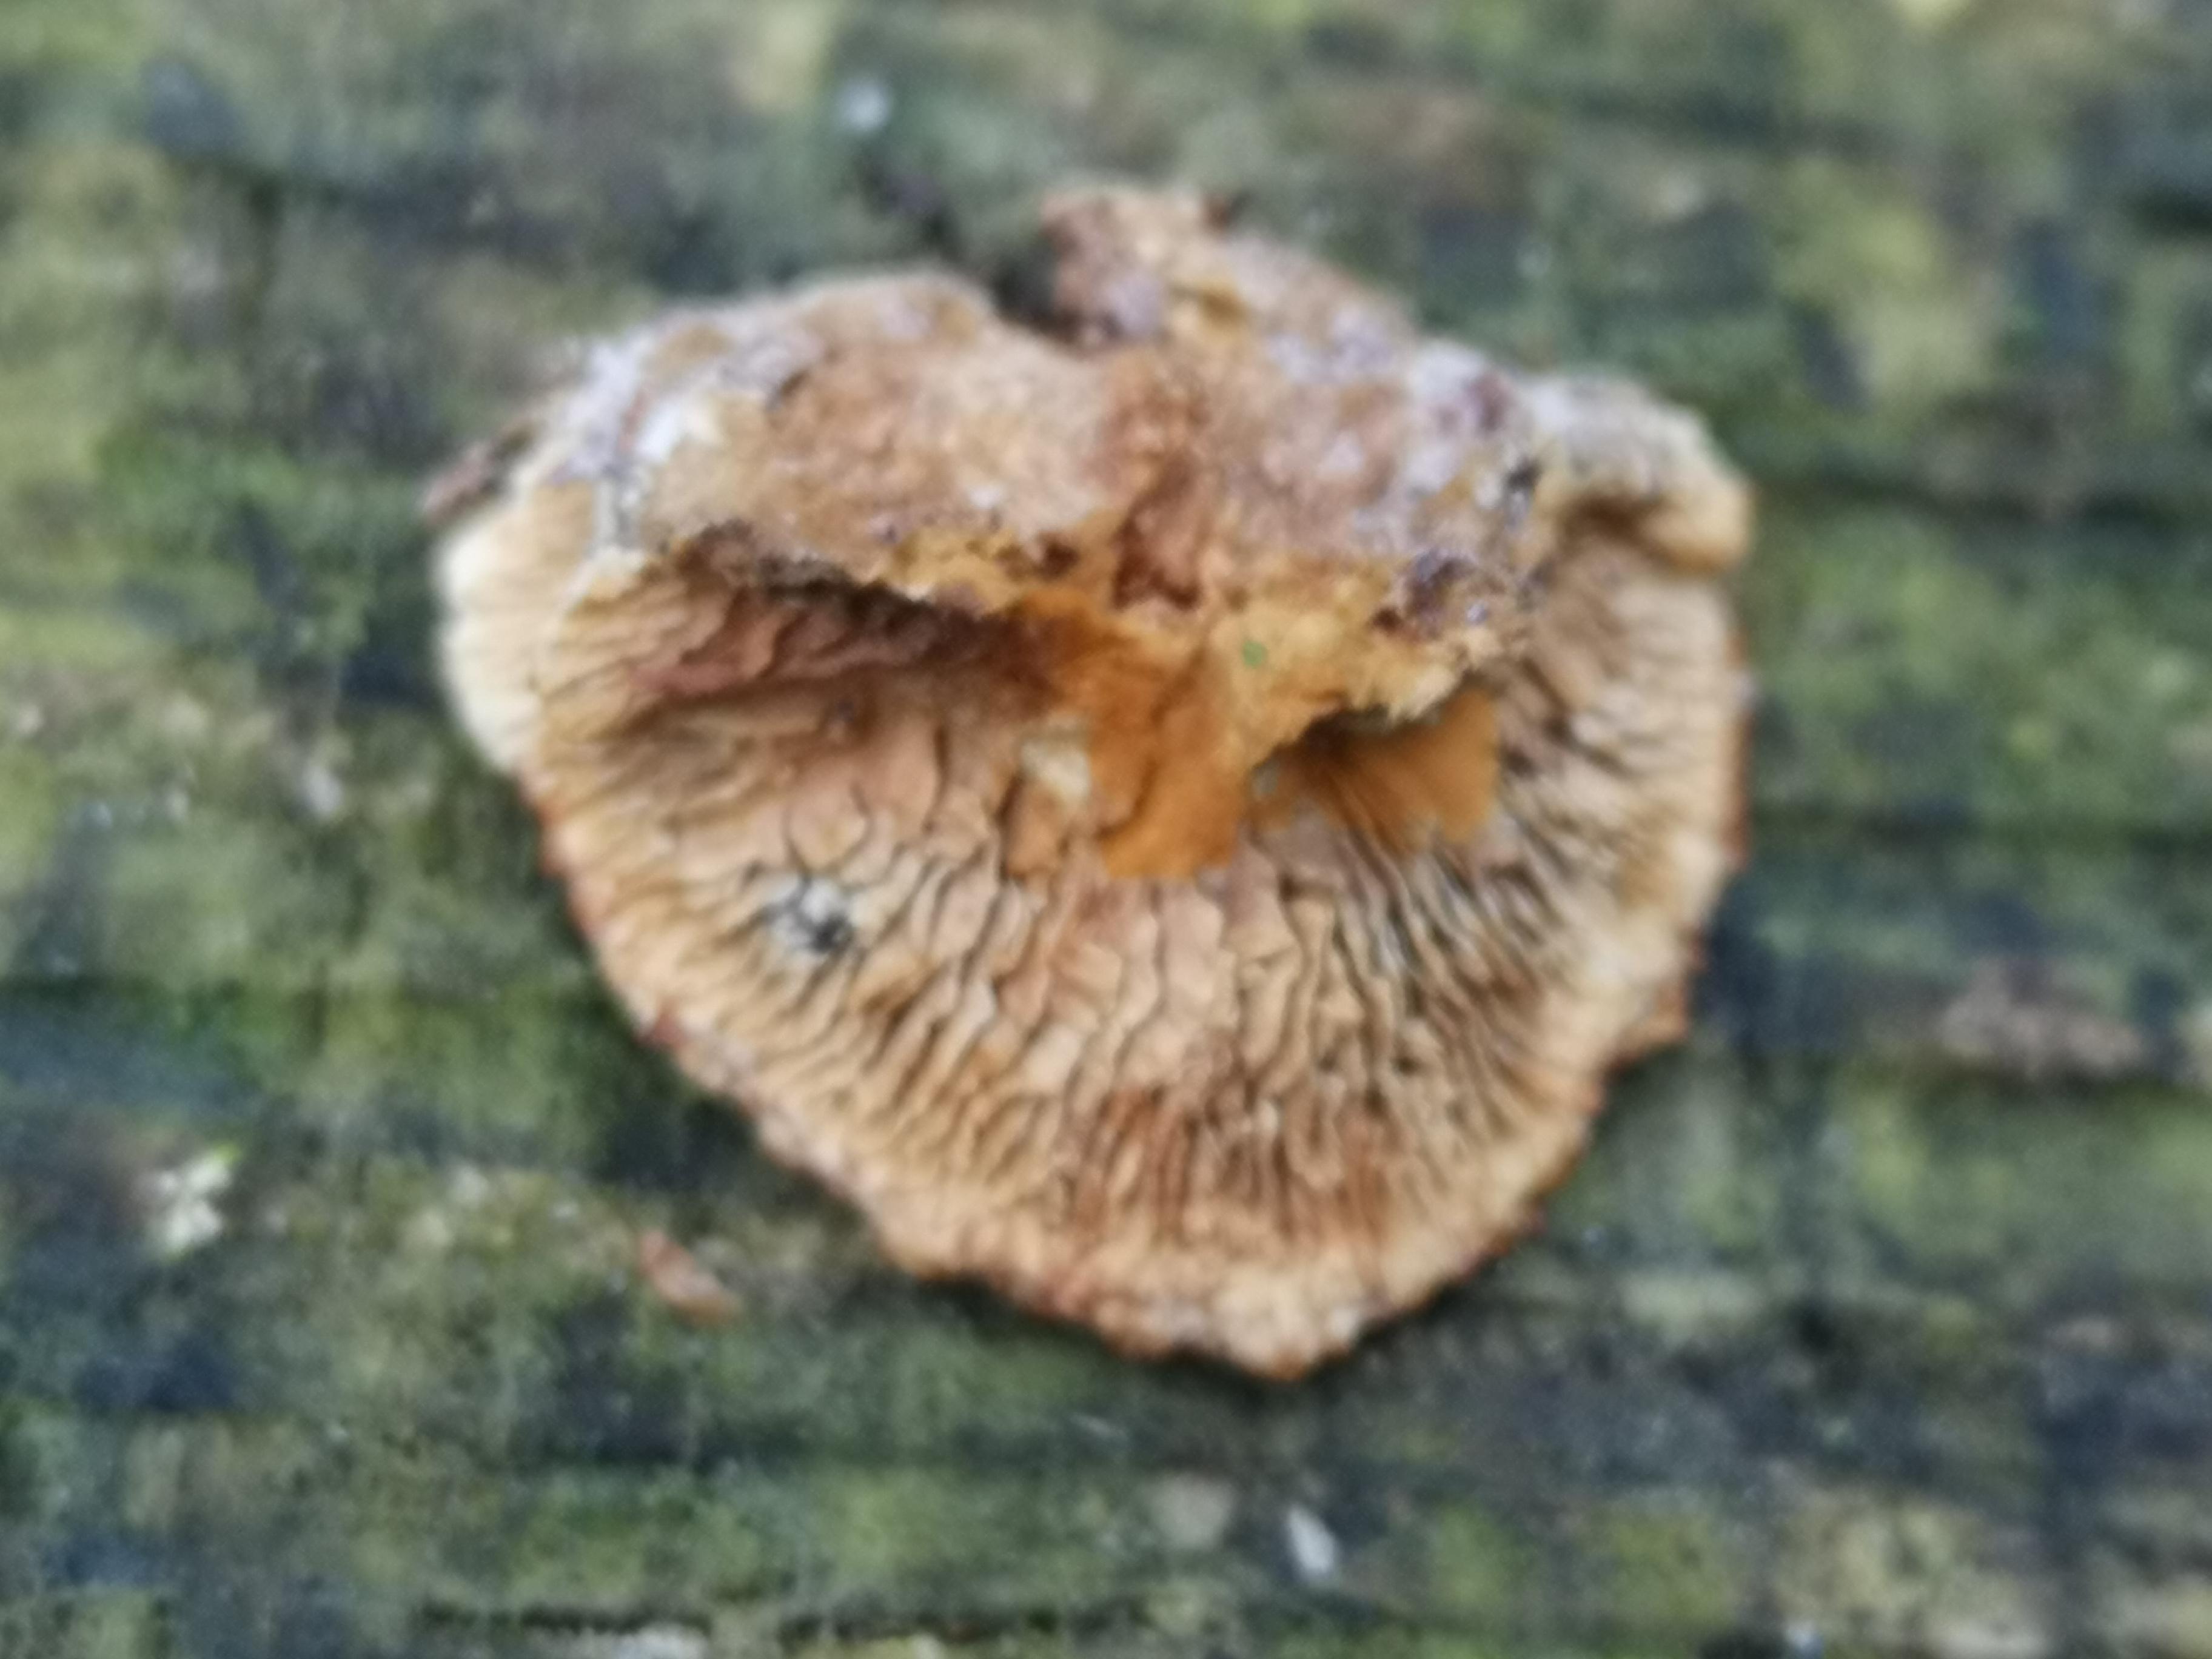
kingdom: Fungi
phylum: Basidiomycota
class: Agaricomycetes
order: Gloeophyllales
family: Gloeophyllaceae
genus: Gloeophyllum
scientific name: Gloeophyllum sepiarium
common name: fyrre-korkhat
